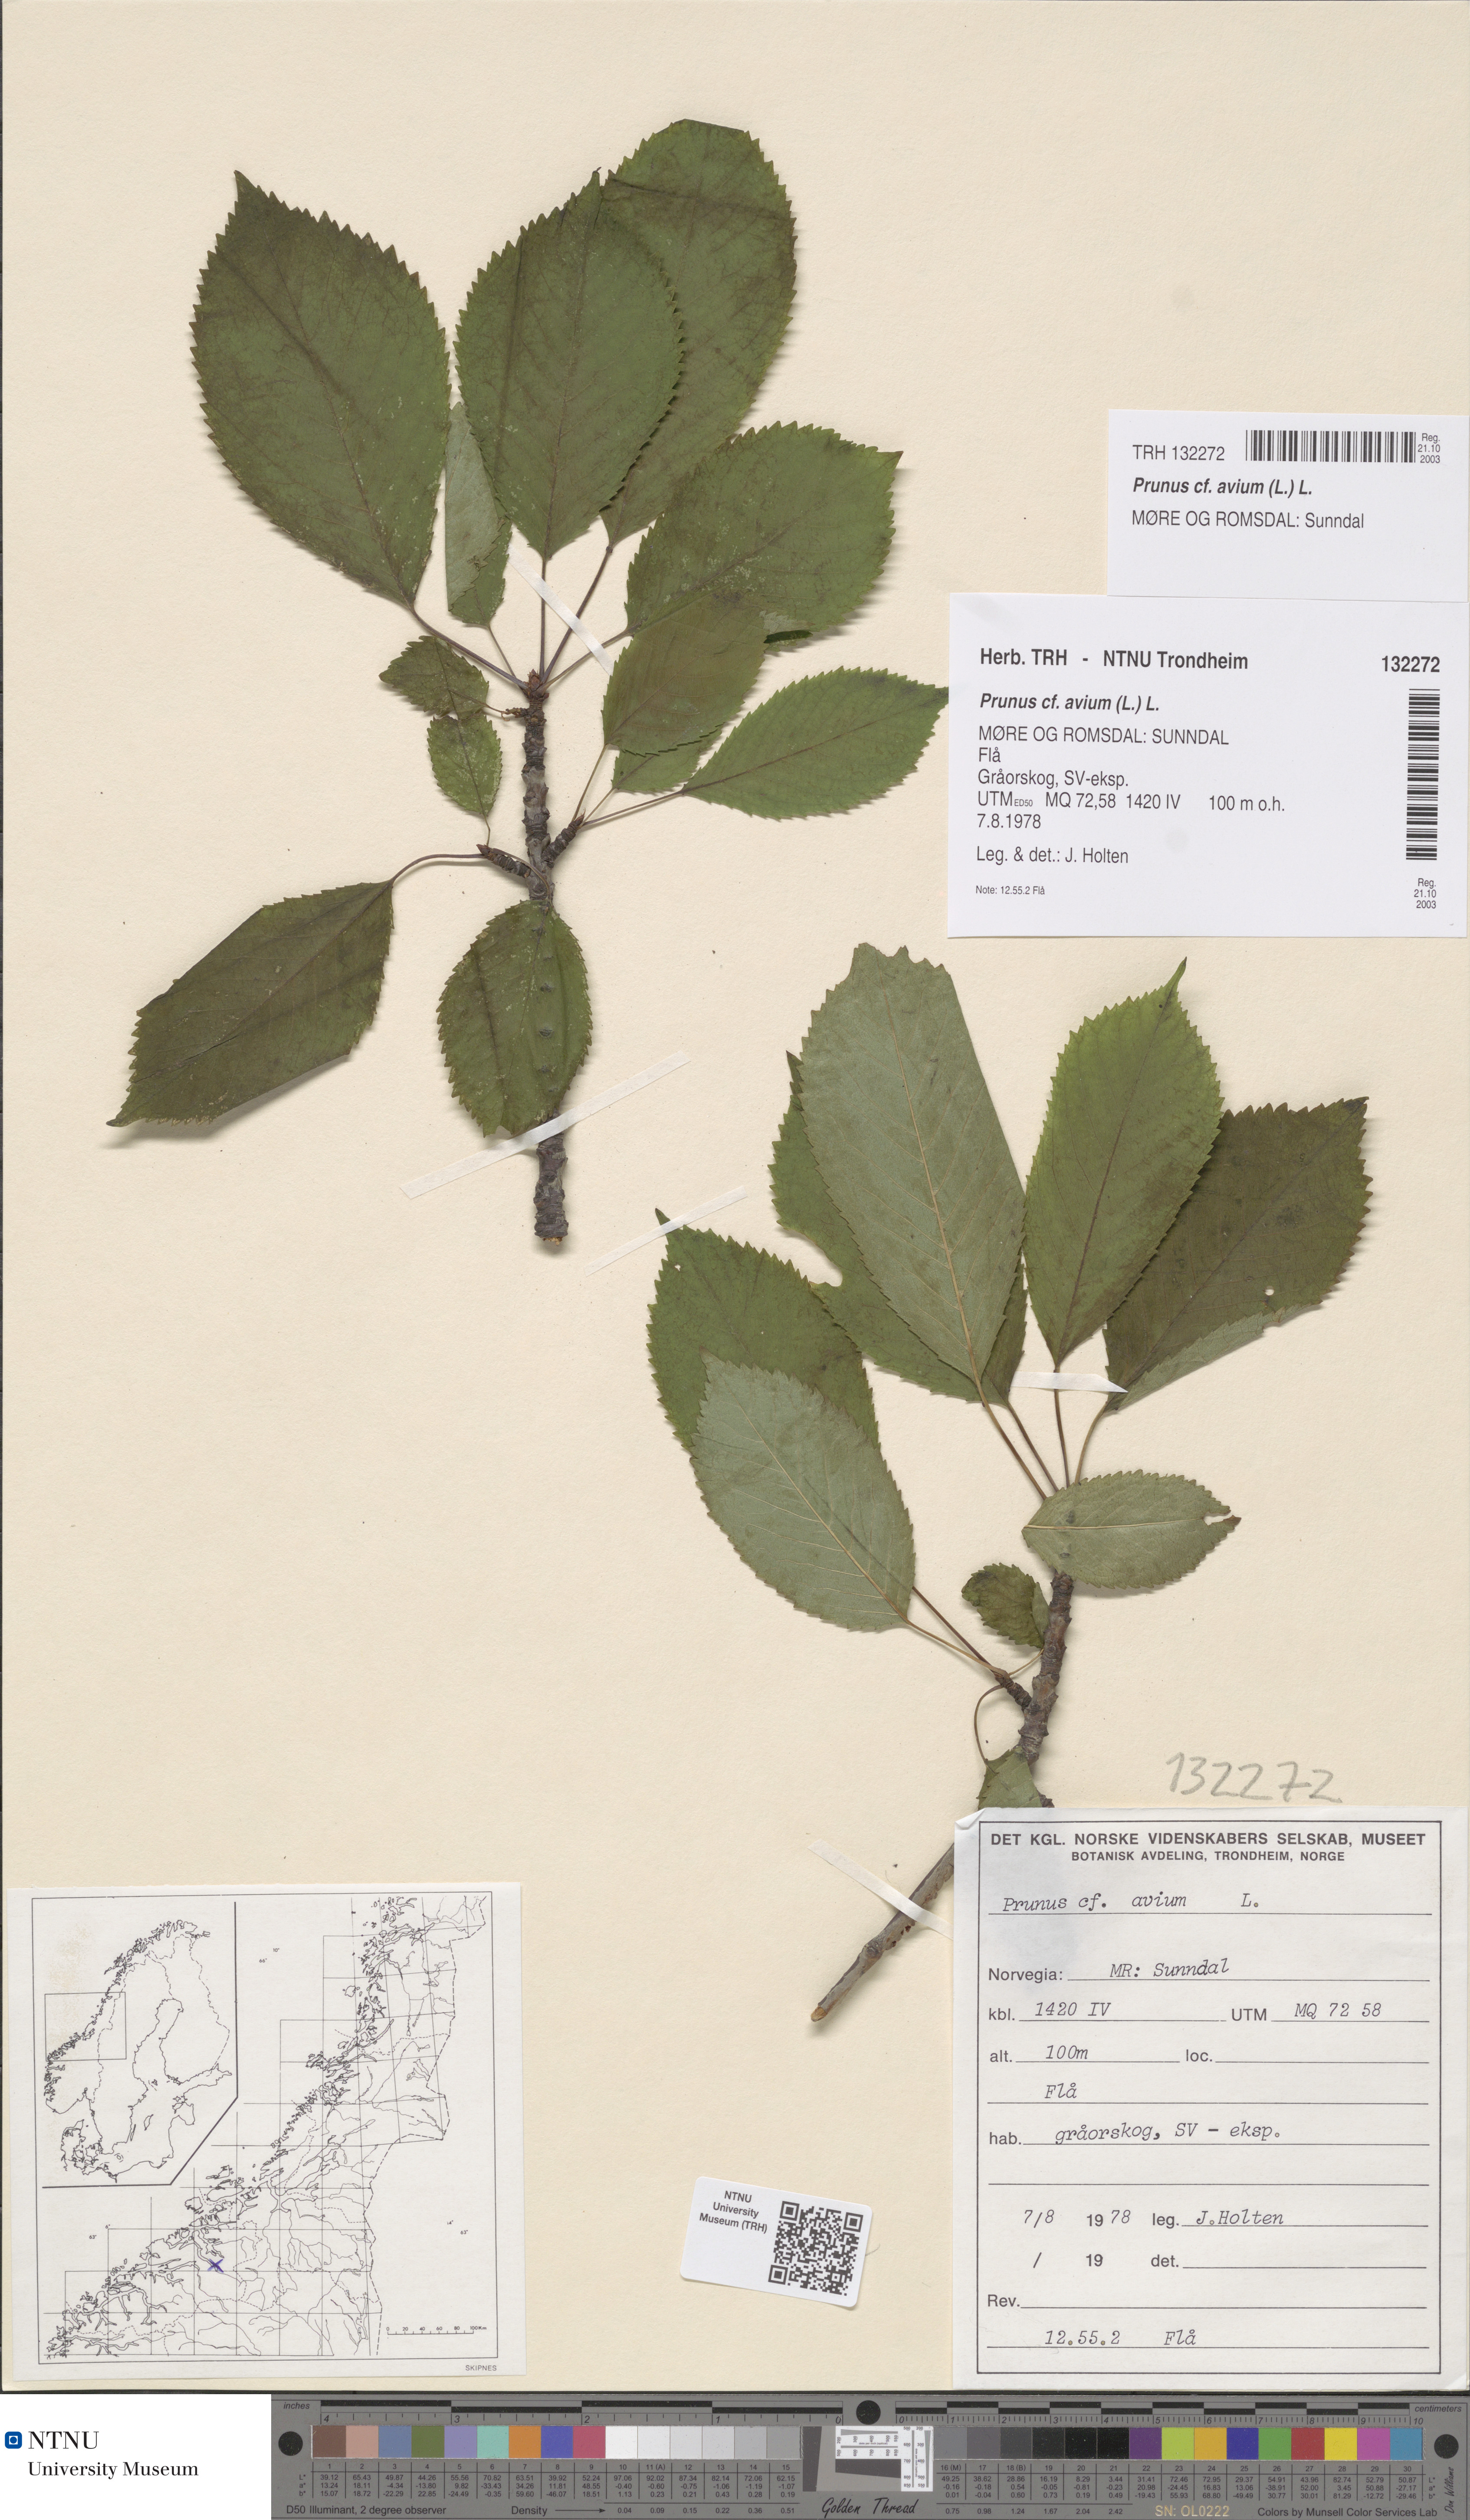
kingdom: Plantae
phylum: Tracheophyta
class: Magnoliopsida
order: Rosales
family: Rosaceae
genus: Prunus
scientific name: Prunus avium
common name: Sweet cherry
